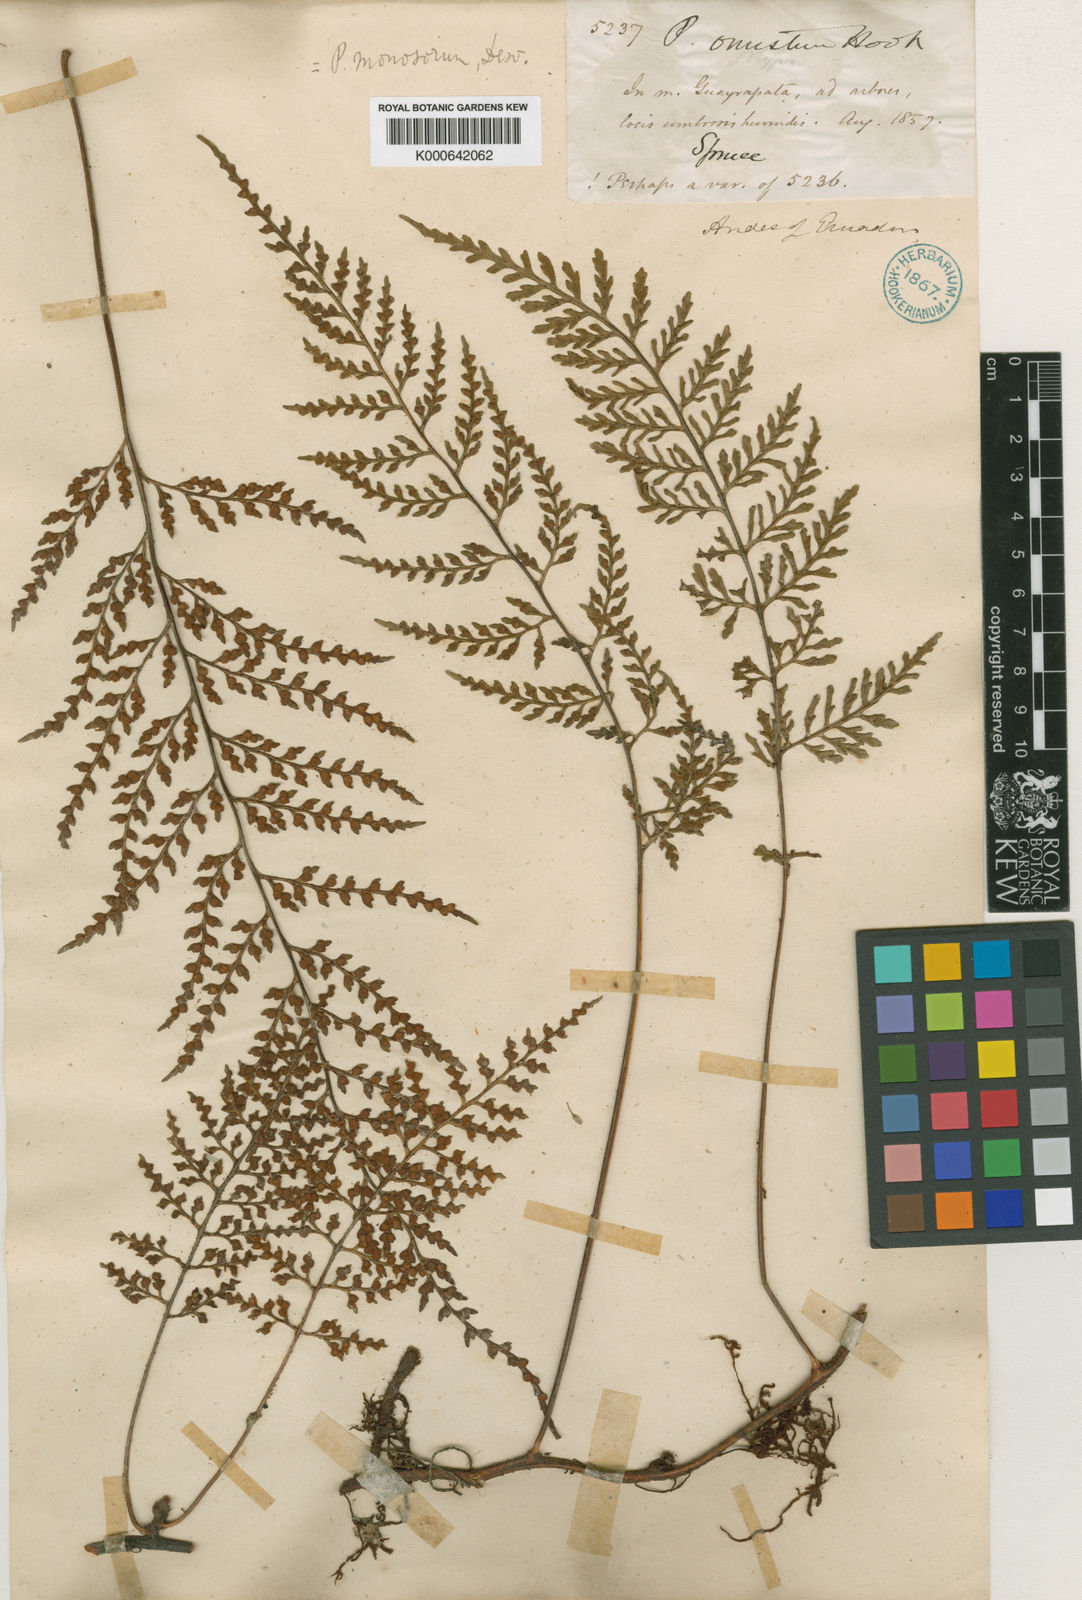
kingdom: Plantae
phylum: Tracheophyta
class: Polypodiopsida
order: Polypodiales
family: Polypodiaceae
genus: Pleopeltis
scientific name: Pleopeltis monosora
